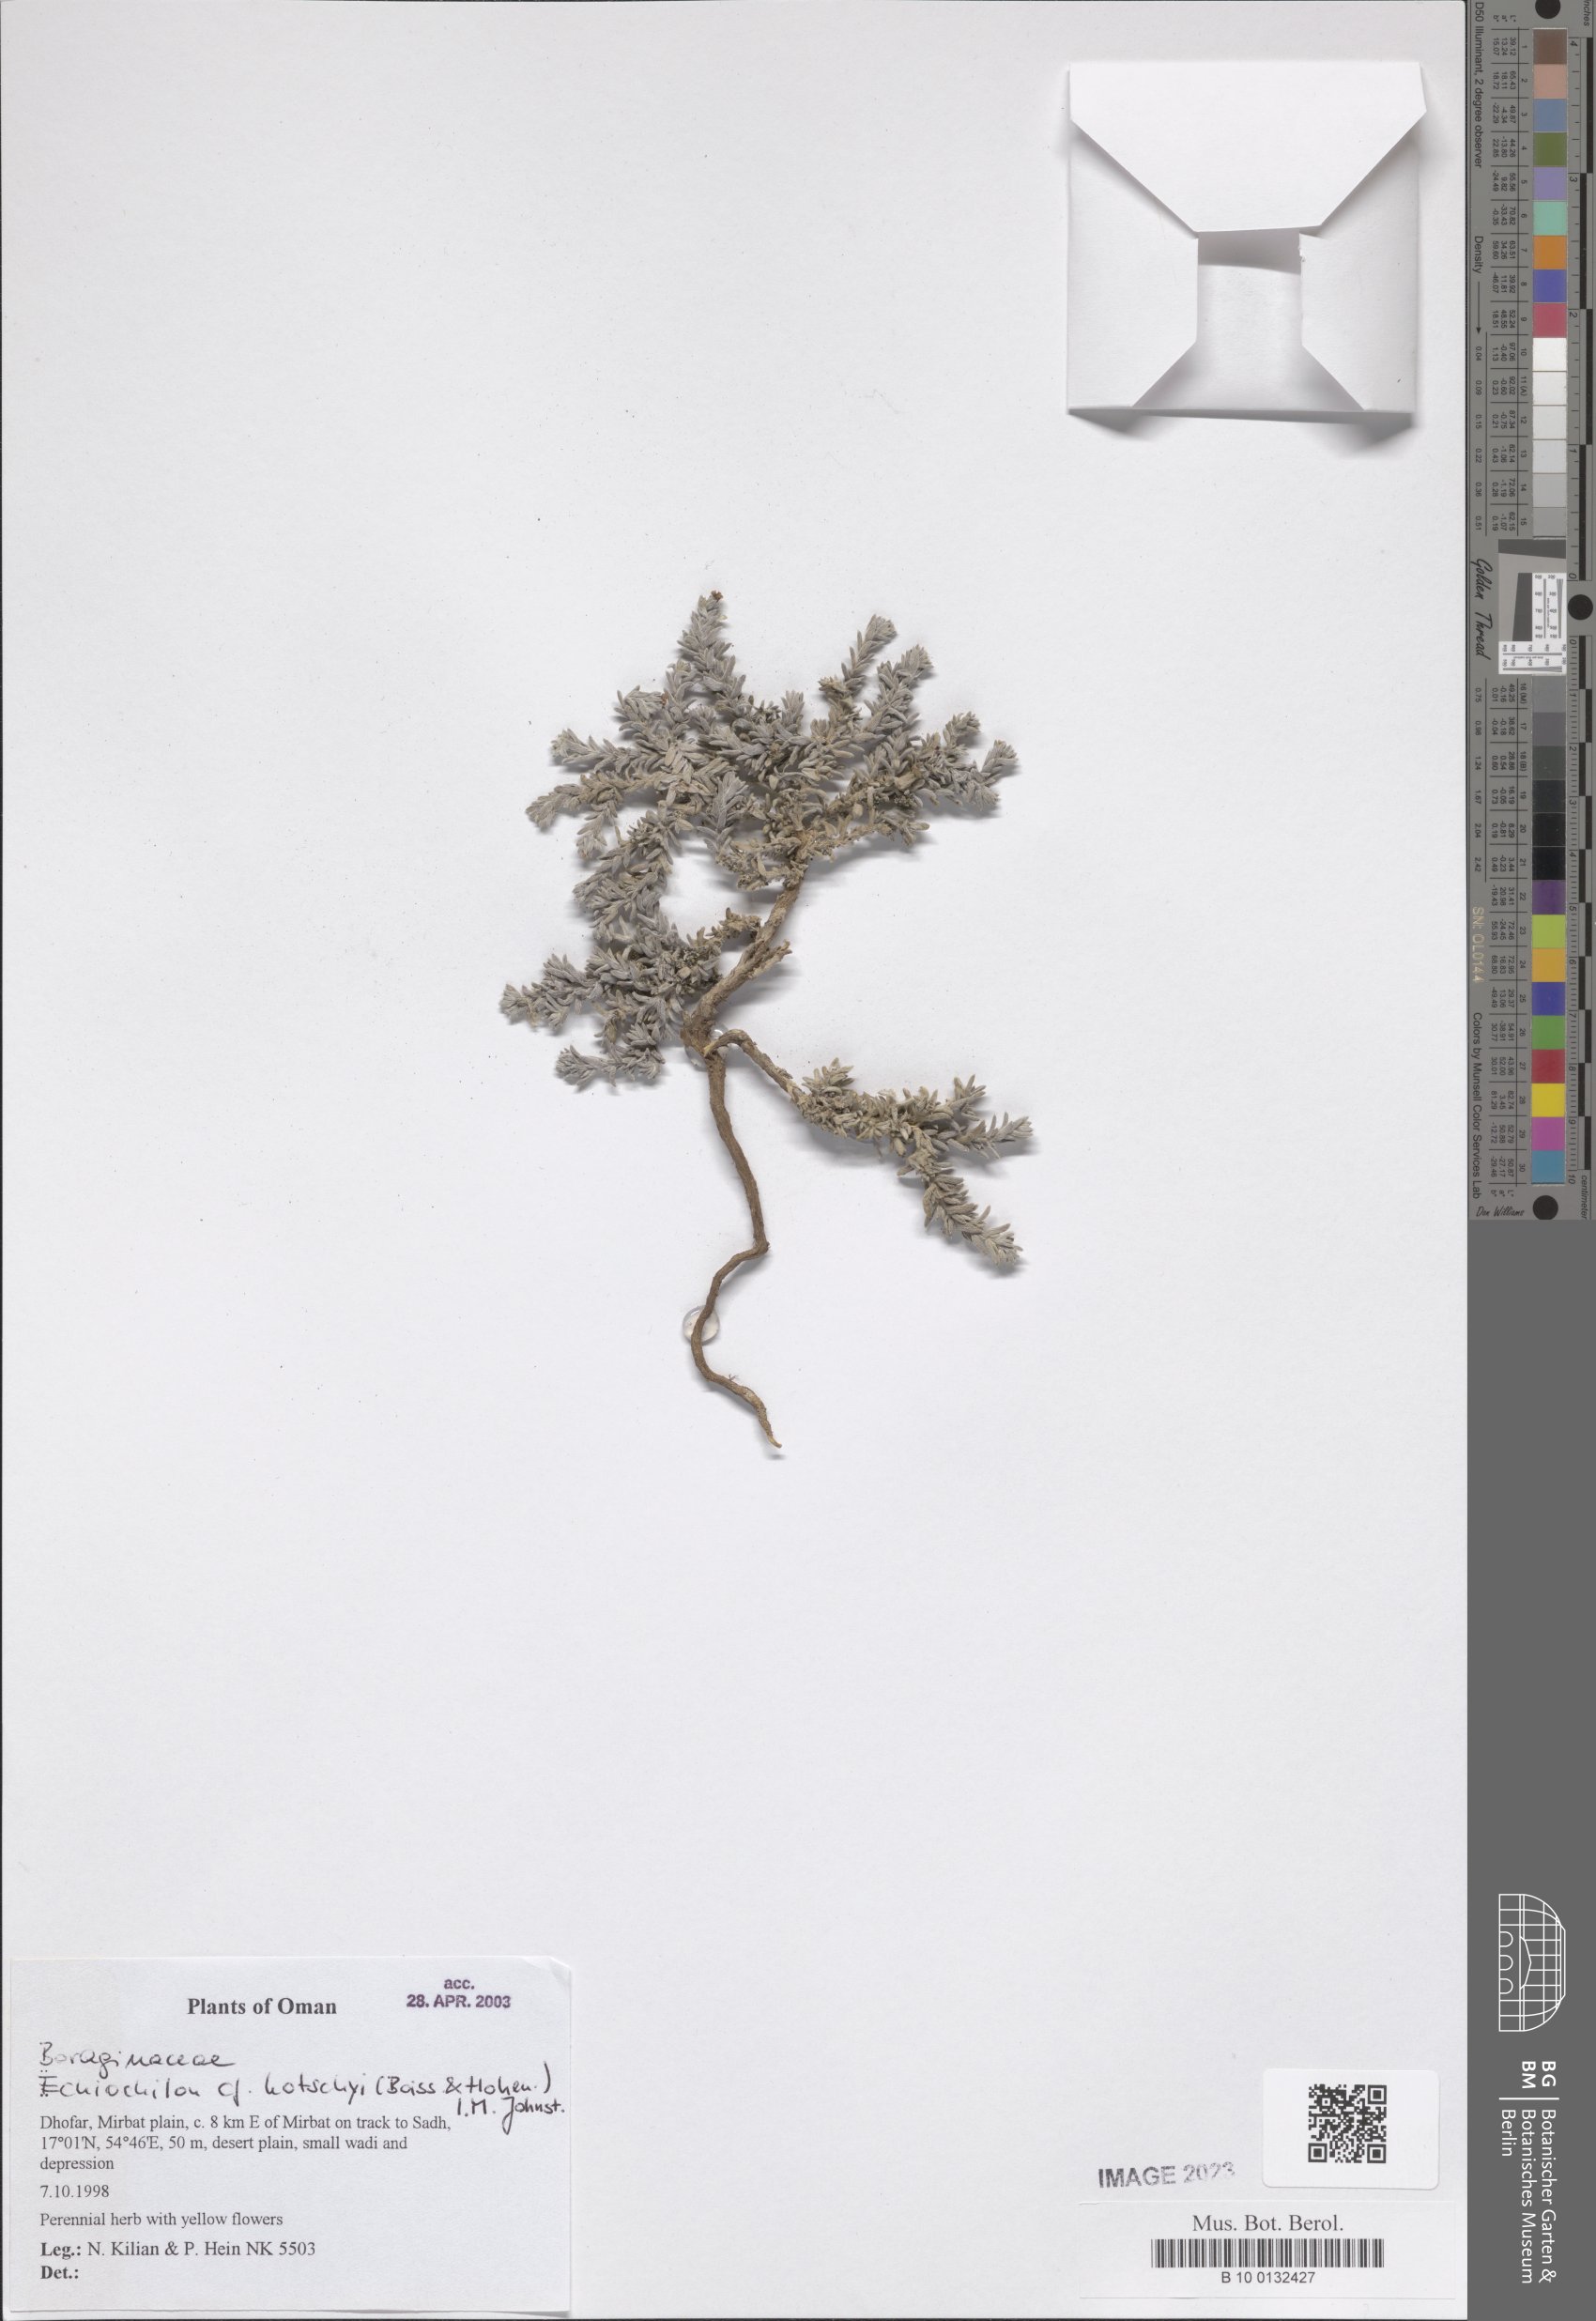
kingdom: Plantae
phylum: Tracheophyta
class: Magnoliopsida
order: Boraginales
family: Boraginaceae
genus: Echiochilon
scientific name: Echiochilon kotschyi
